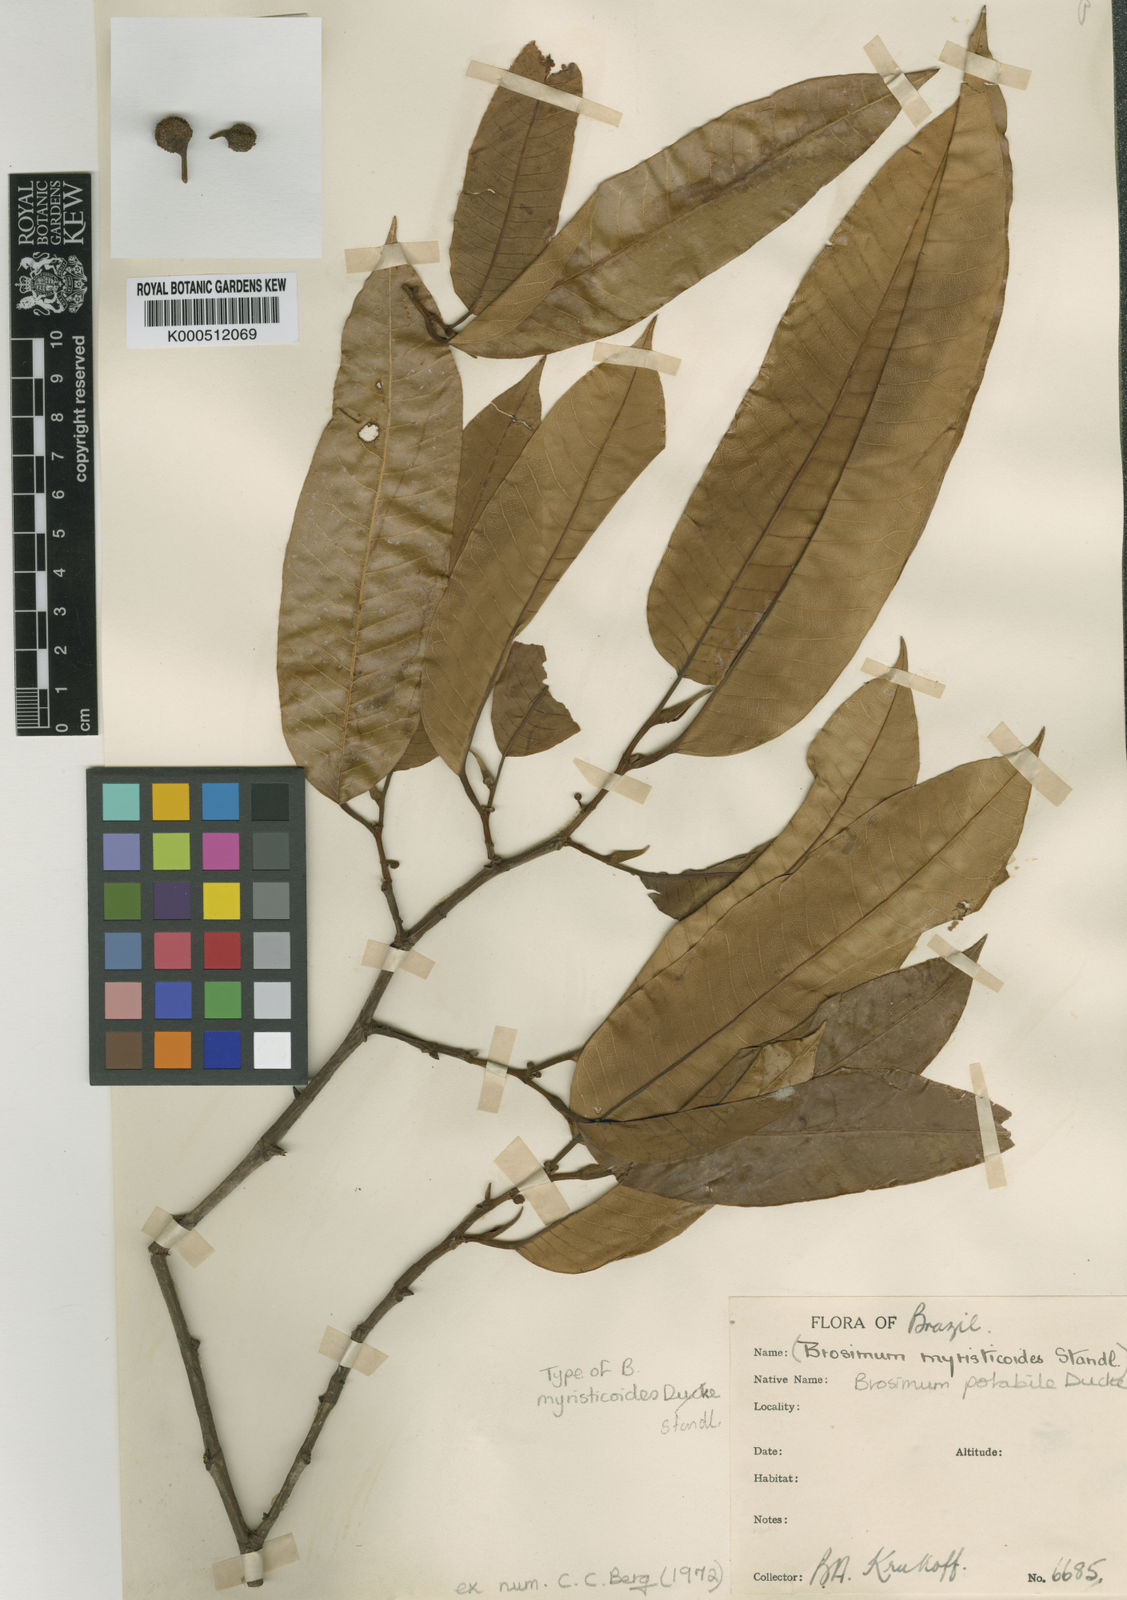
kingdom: Plantae
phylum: Tracheophyta
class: Magnoliopsida
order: Rosales
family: Moraceae
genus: Brosimum
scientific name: Brosimum potabile
